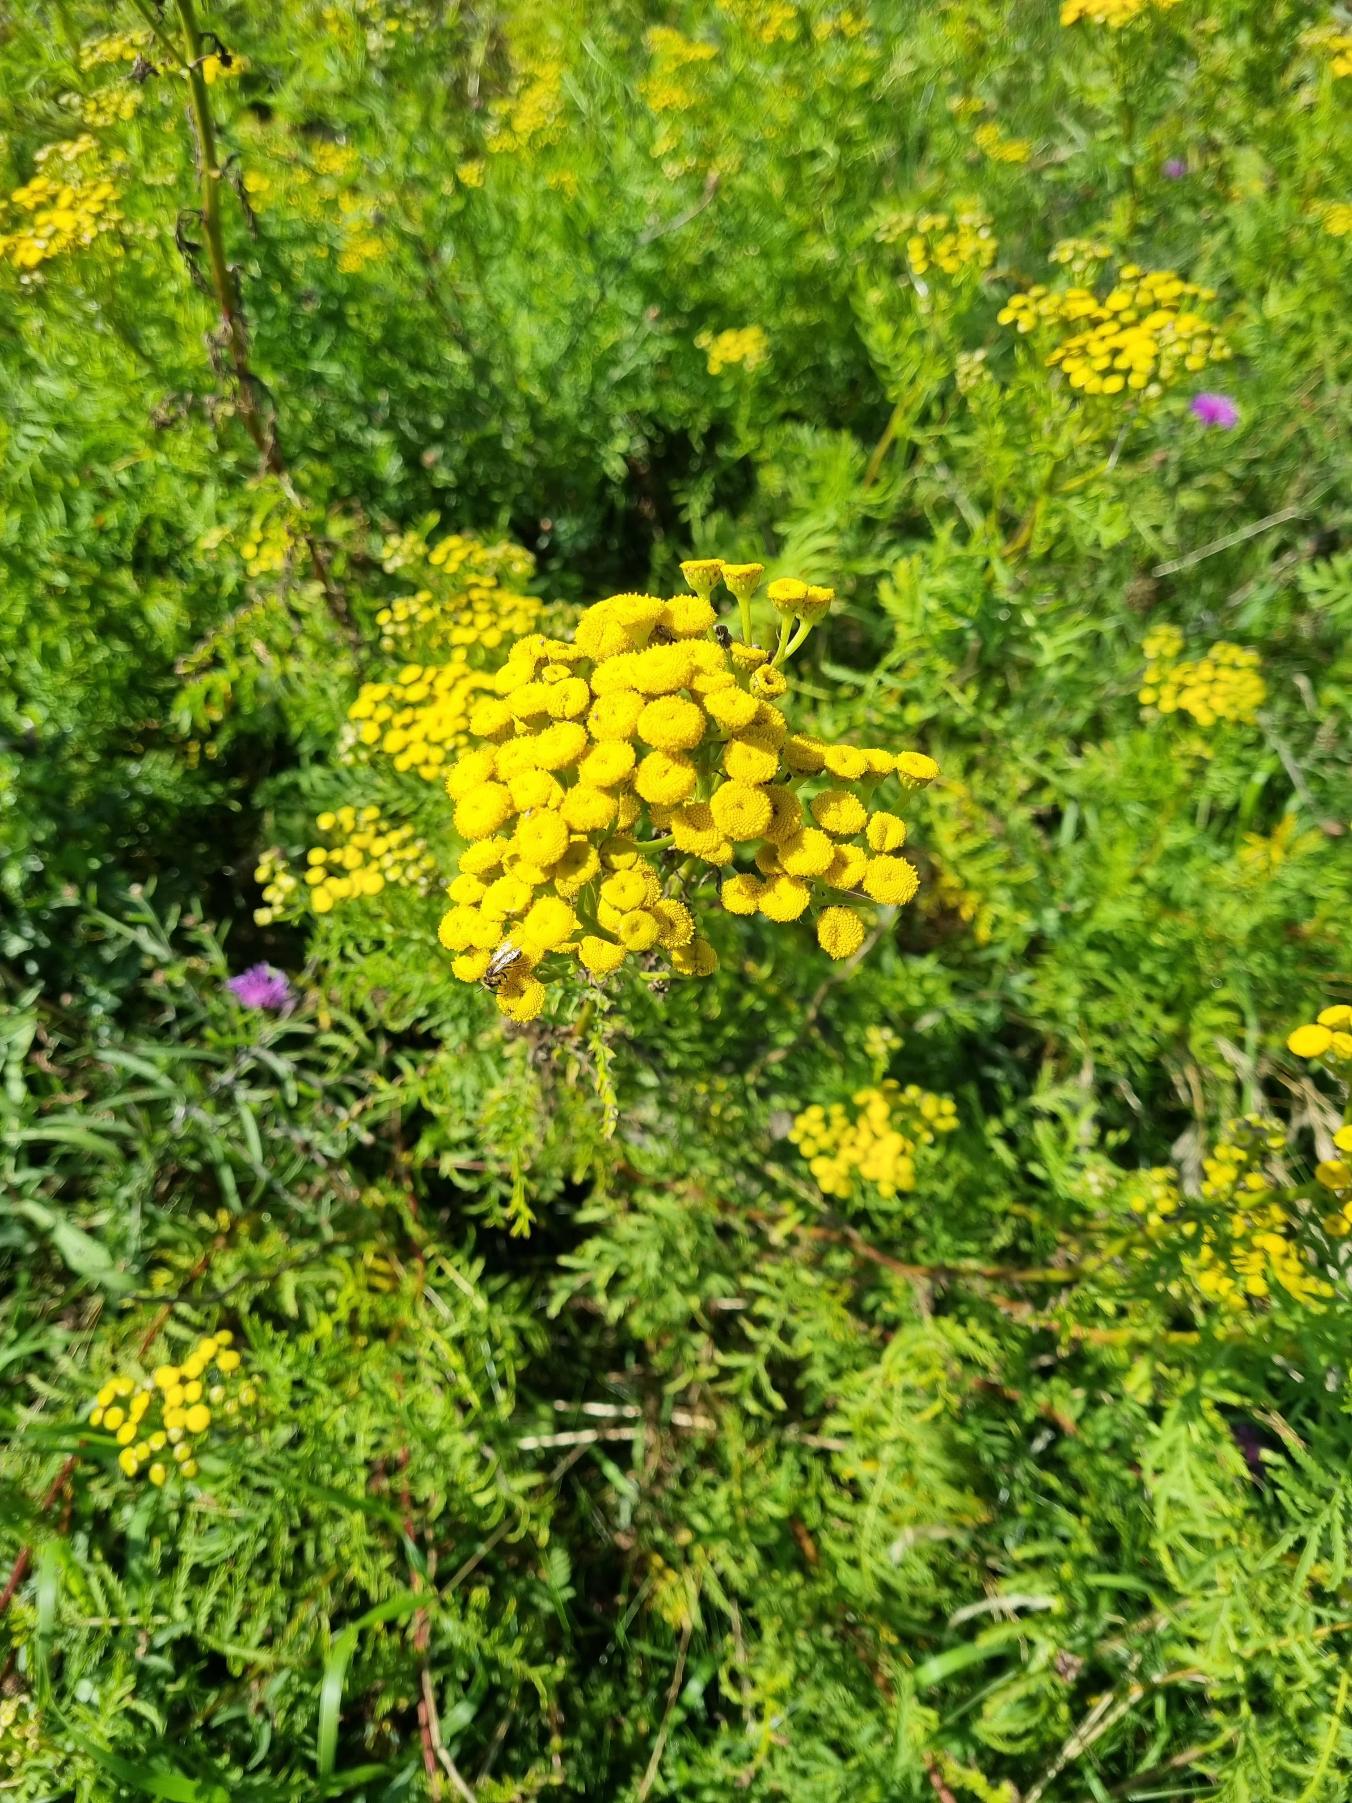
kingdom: Plantae
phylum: Tracheophyta
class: Magnoliopsida
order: Asterales
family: Asteraceae
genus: Tanacetum
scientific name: Tanacetum vulgare
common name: Rejnfan
